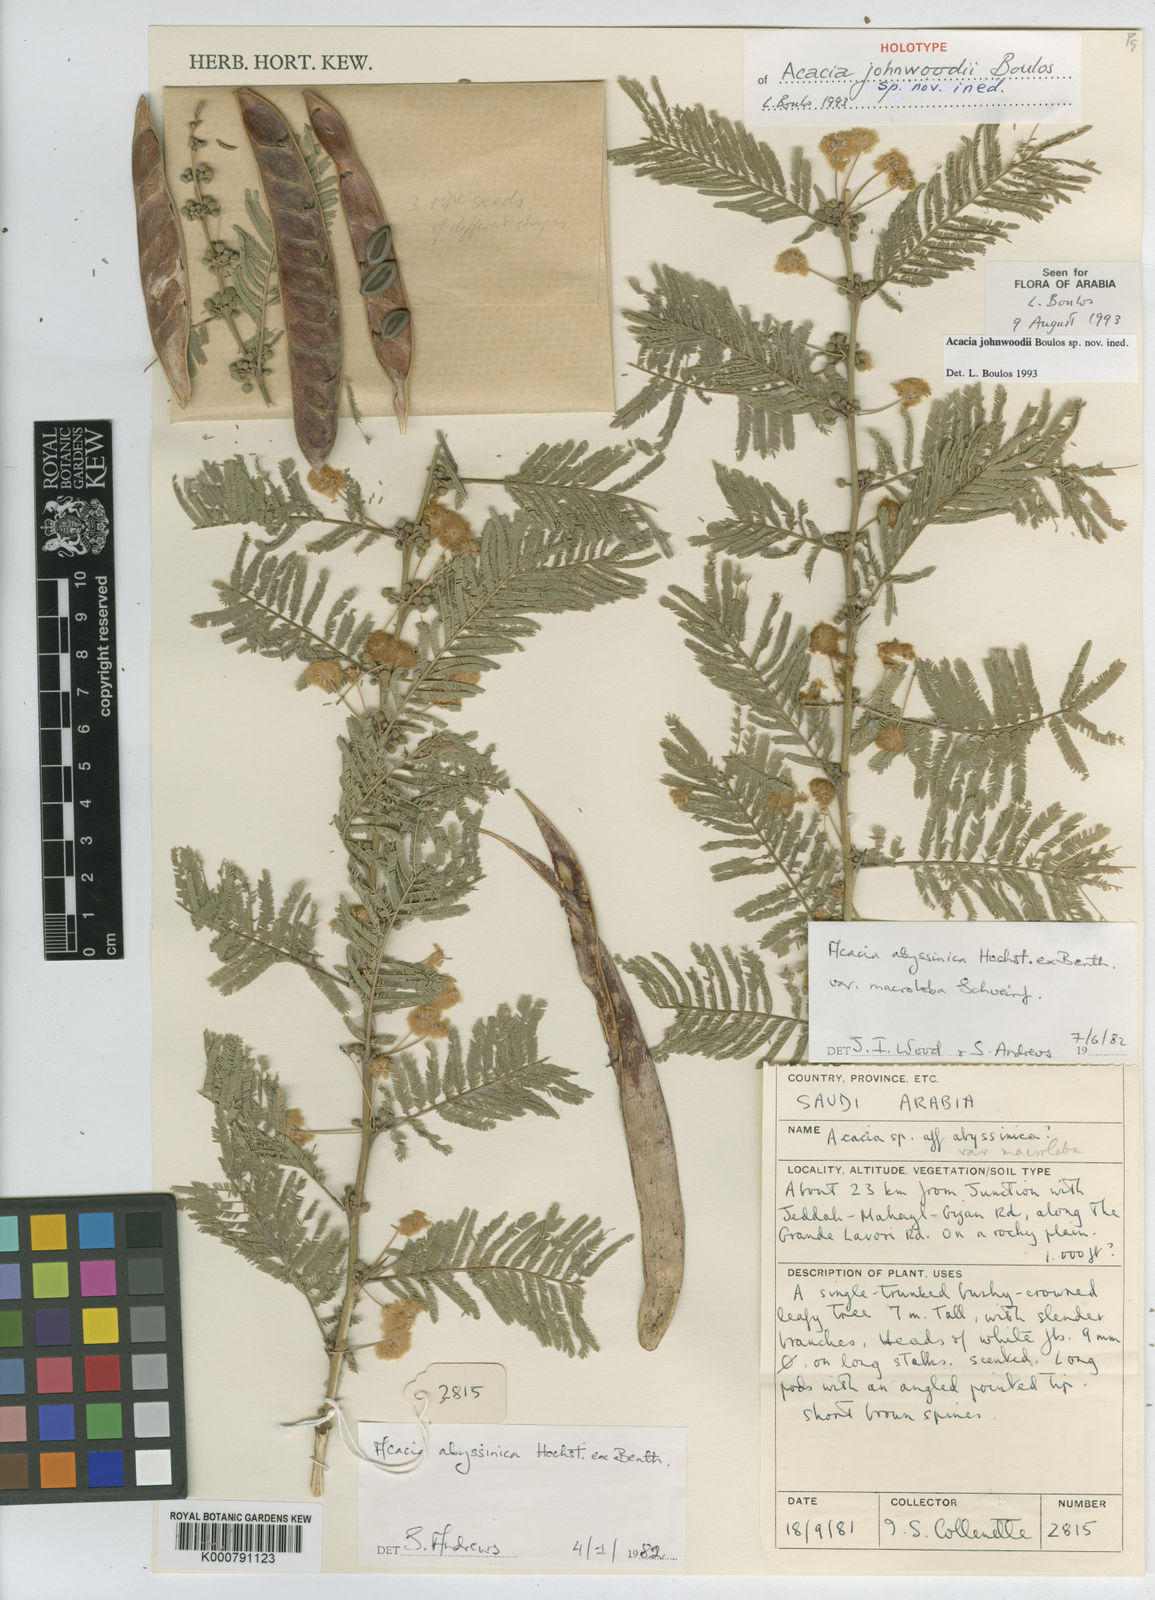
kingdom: Plantae
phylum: Tracheophyta
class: Magnoliopsida
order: Fabales
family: Fabaceae
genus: Vachellia
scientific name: Vachellia johnwoodii
